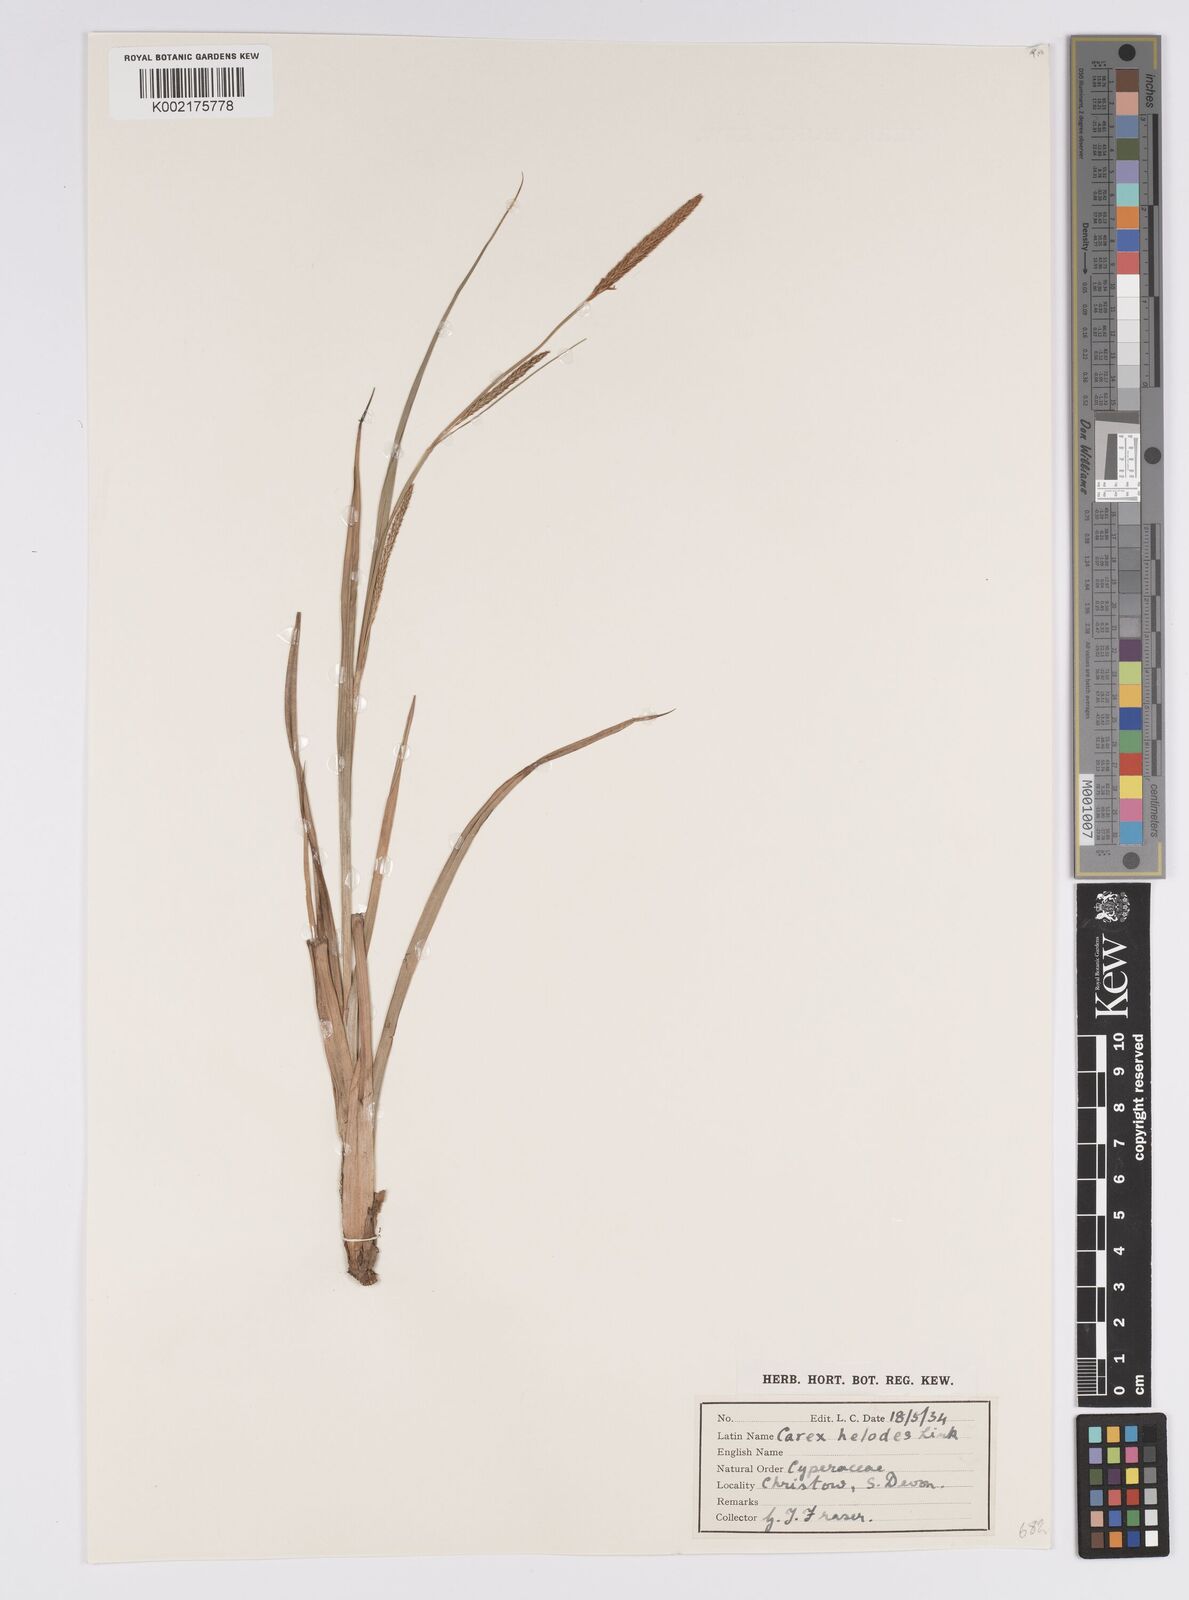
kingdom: Plantae
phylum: Tracheophyta
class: Liliopsida
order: Poales
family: Cyperaceae
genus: Carex
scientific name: Carex laevigata
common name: Smooth-stalked sedge
